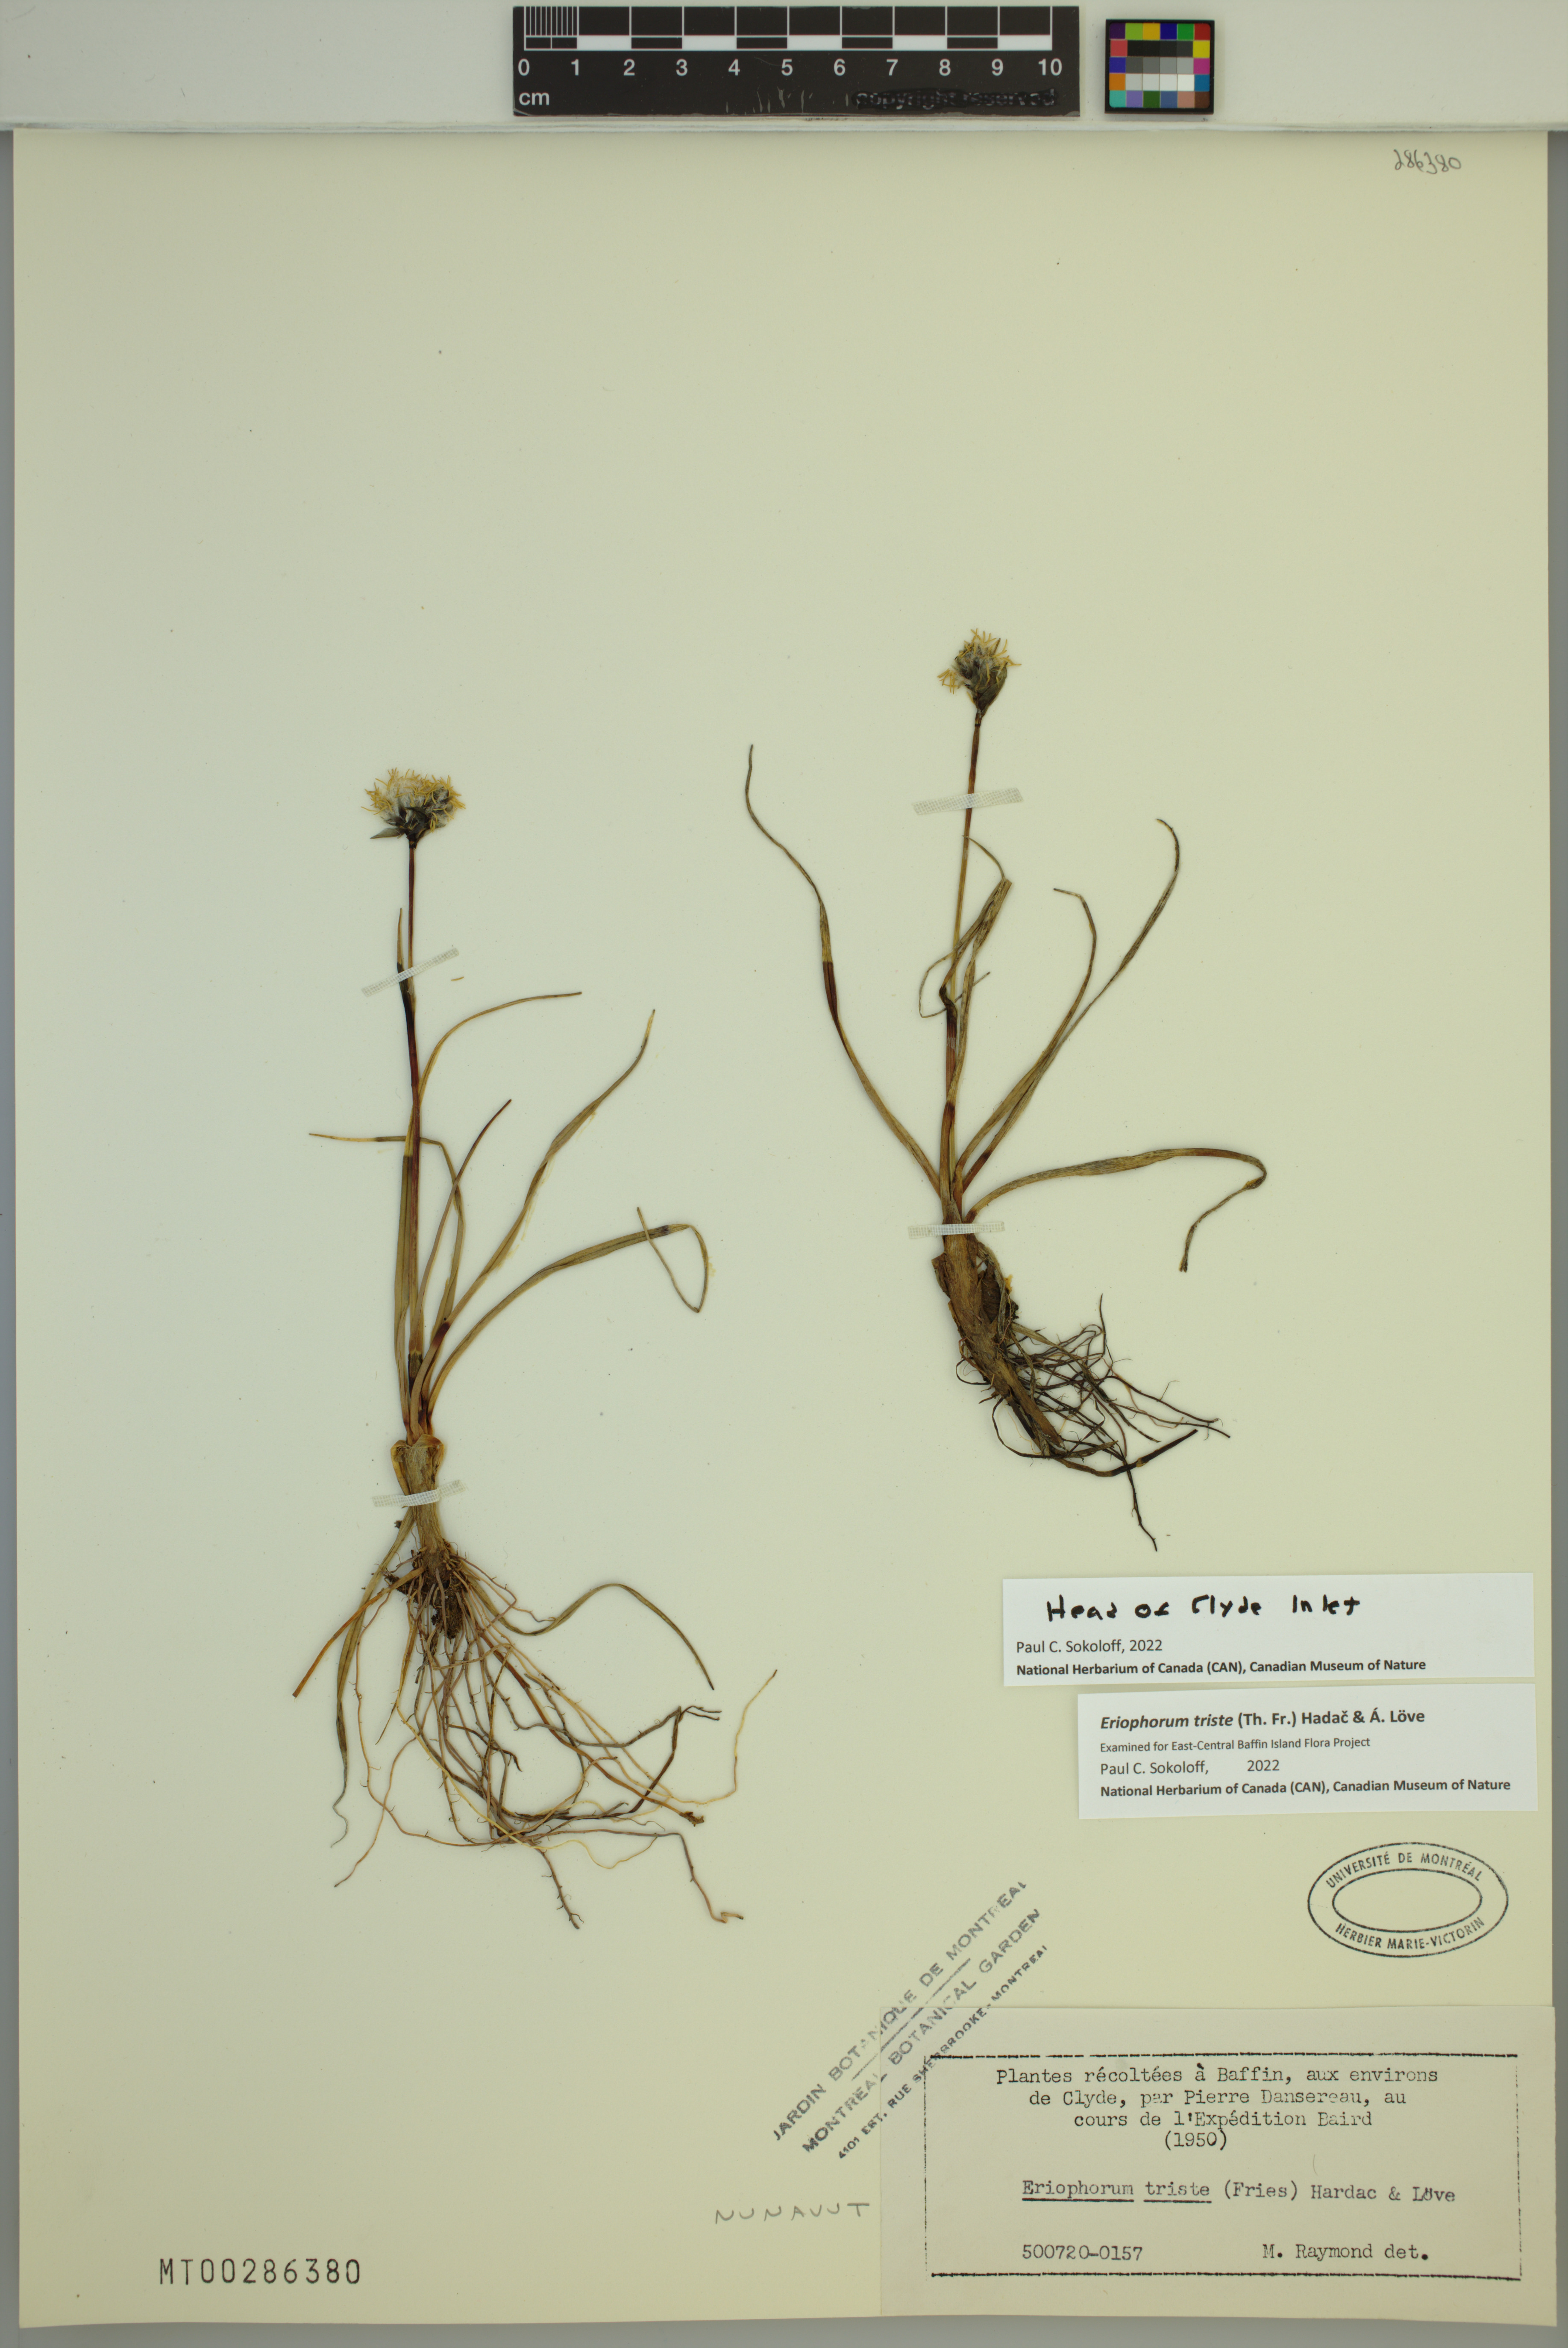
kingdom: Plantae
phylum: Tracheophyta
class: Liliopsida
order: Poales
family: Cyperaceae
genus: Eriophorum
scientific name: Eriophorum triste
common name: Tall cottongrass
